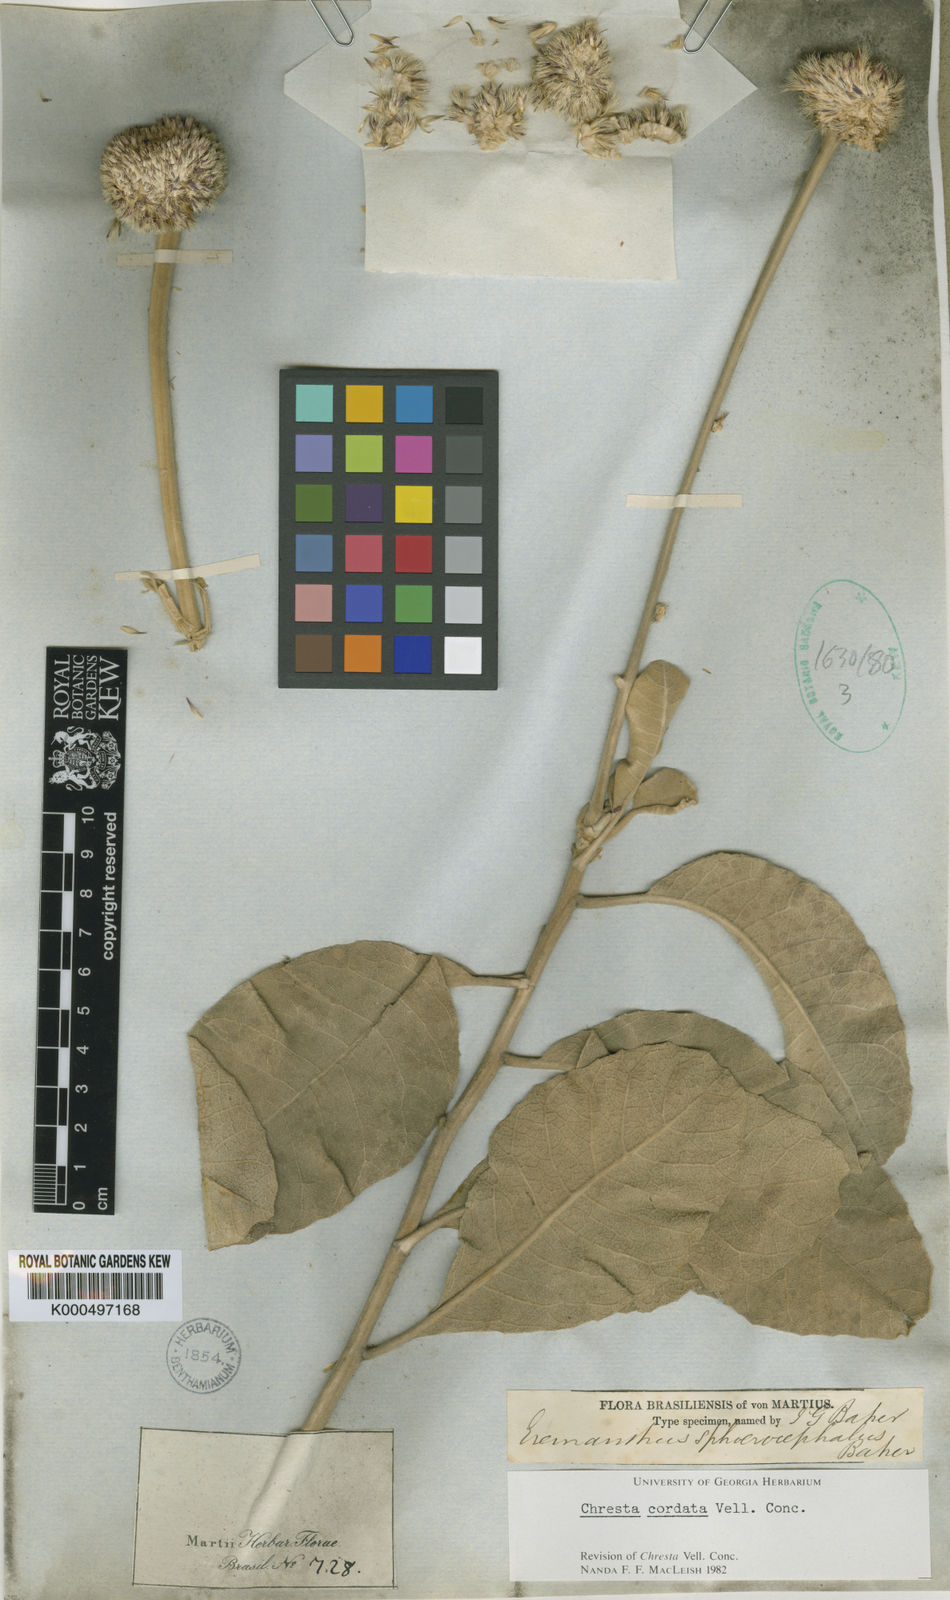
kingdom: Plantae
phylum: Tracheophyta
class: Magnoliopsida
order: Asterales
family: Asteraceae
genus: Chresta
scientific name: Chresta
